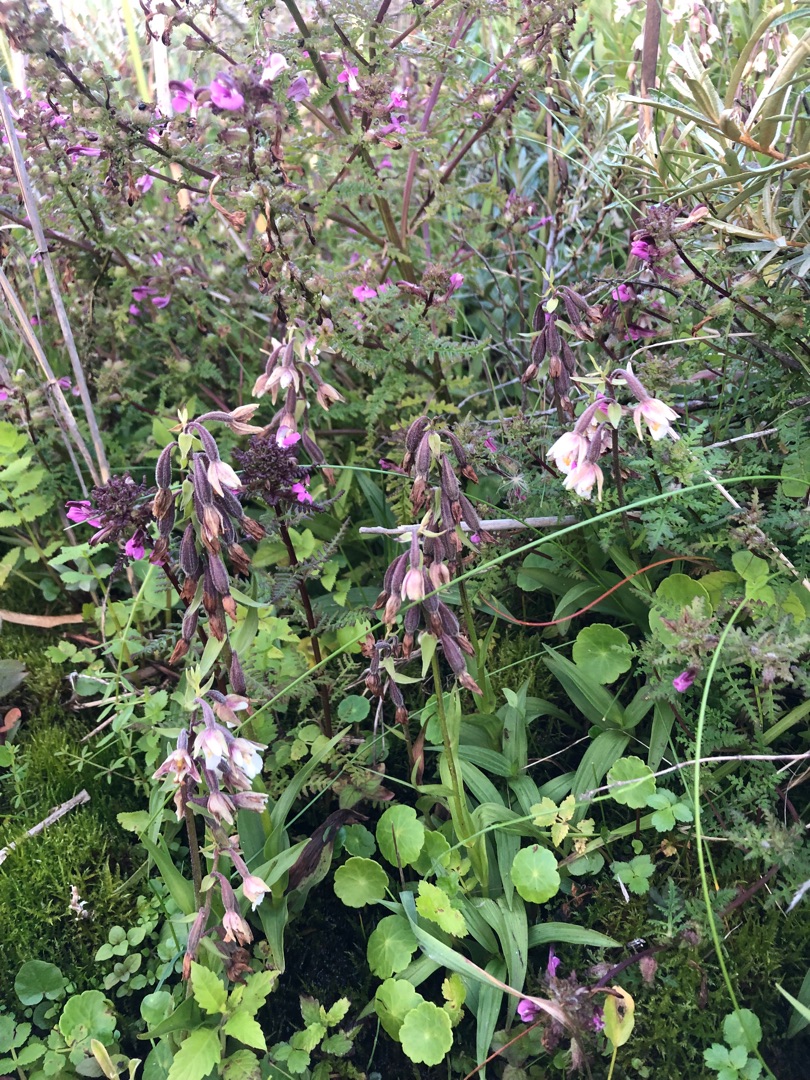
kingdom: Plantae
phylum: Tracheophyta
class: Liliopsida
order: Asparagales
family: Orchidaceae
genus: Epipactis
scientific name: Epipactis palustris
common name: Sump-hullæbe
